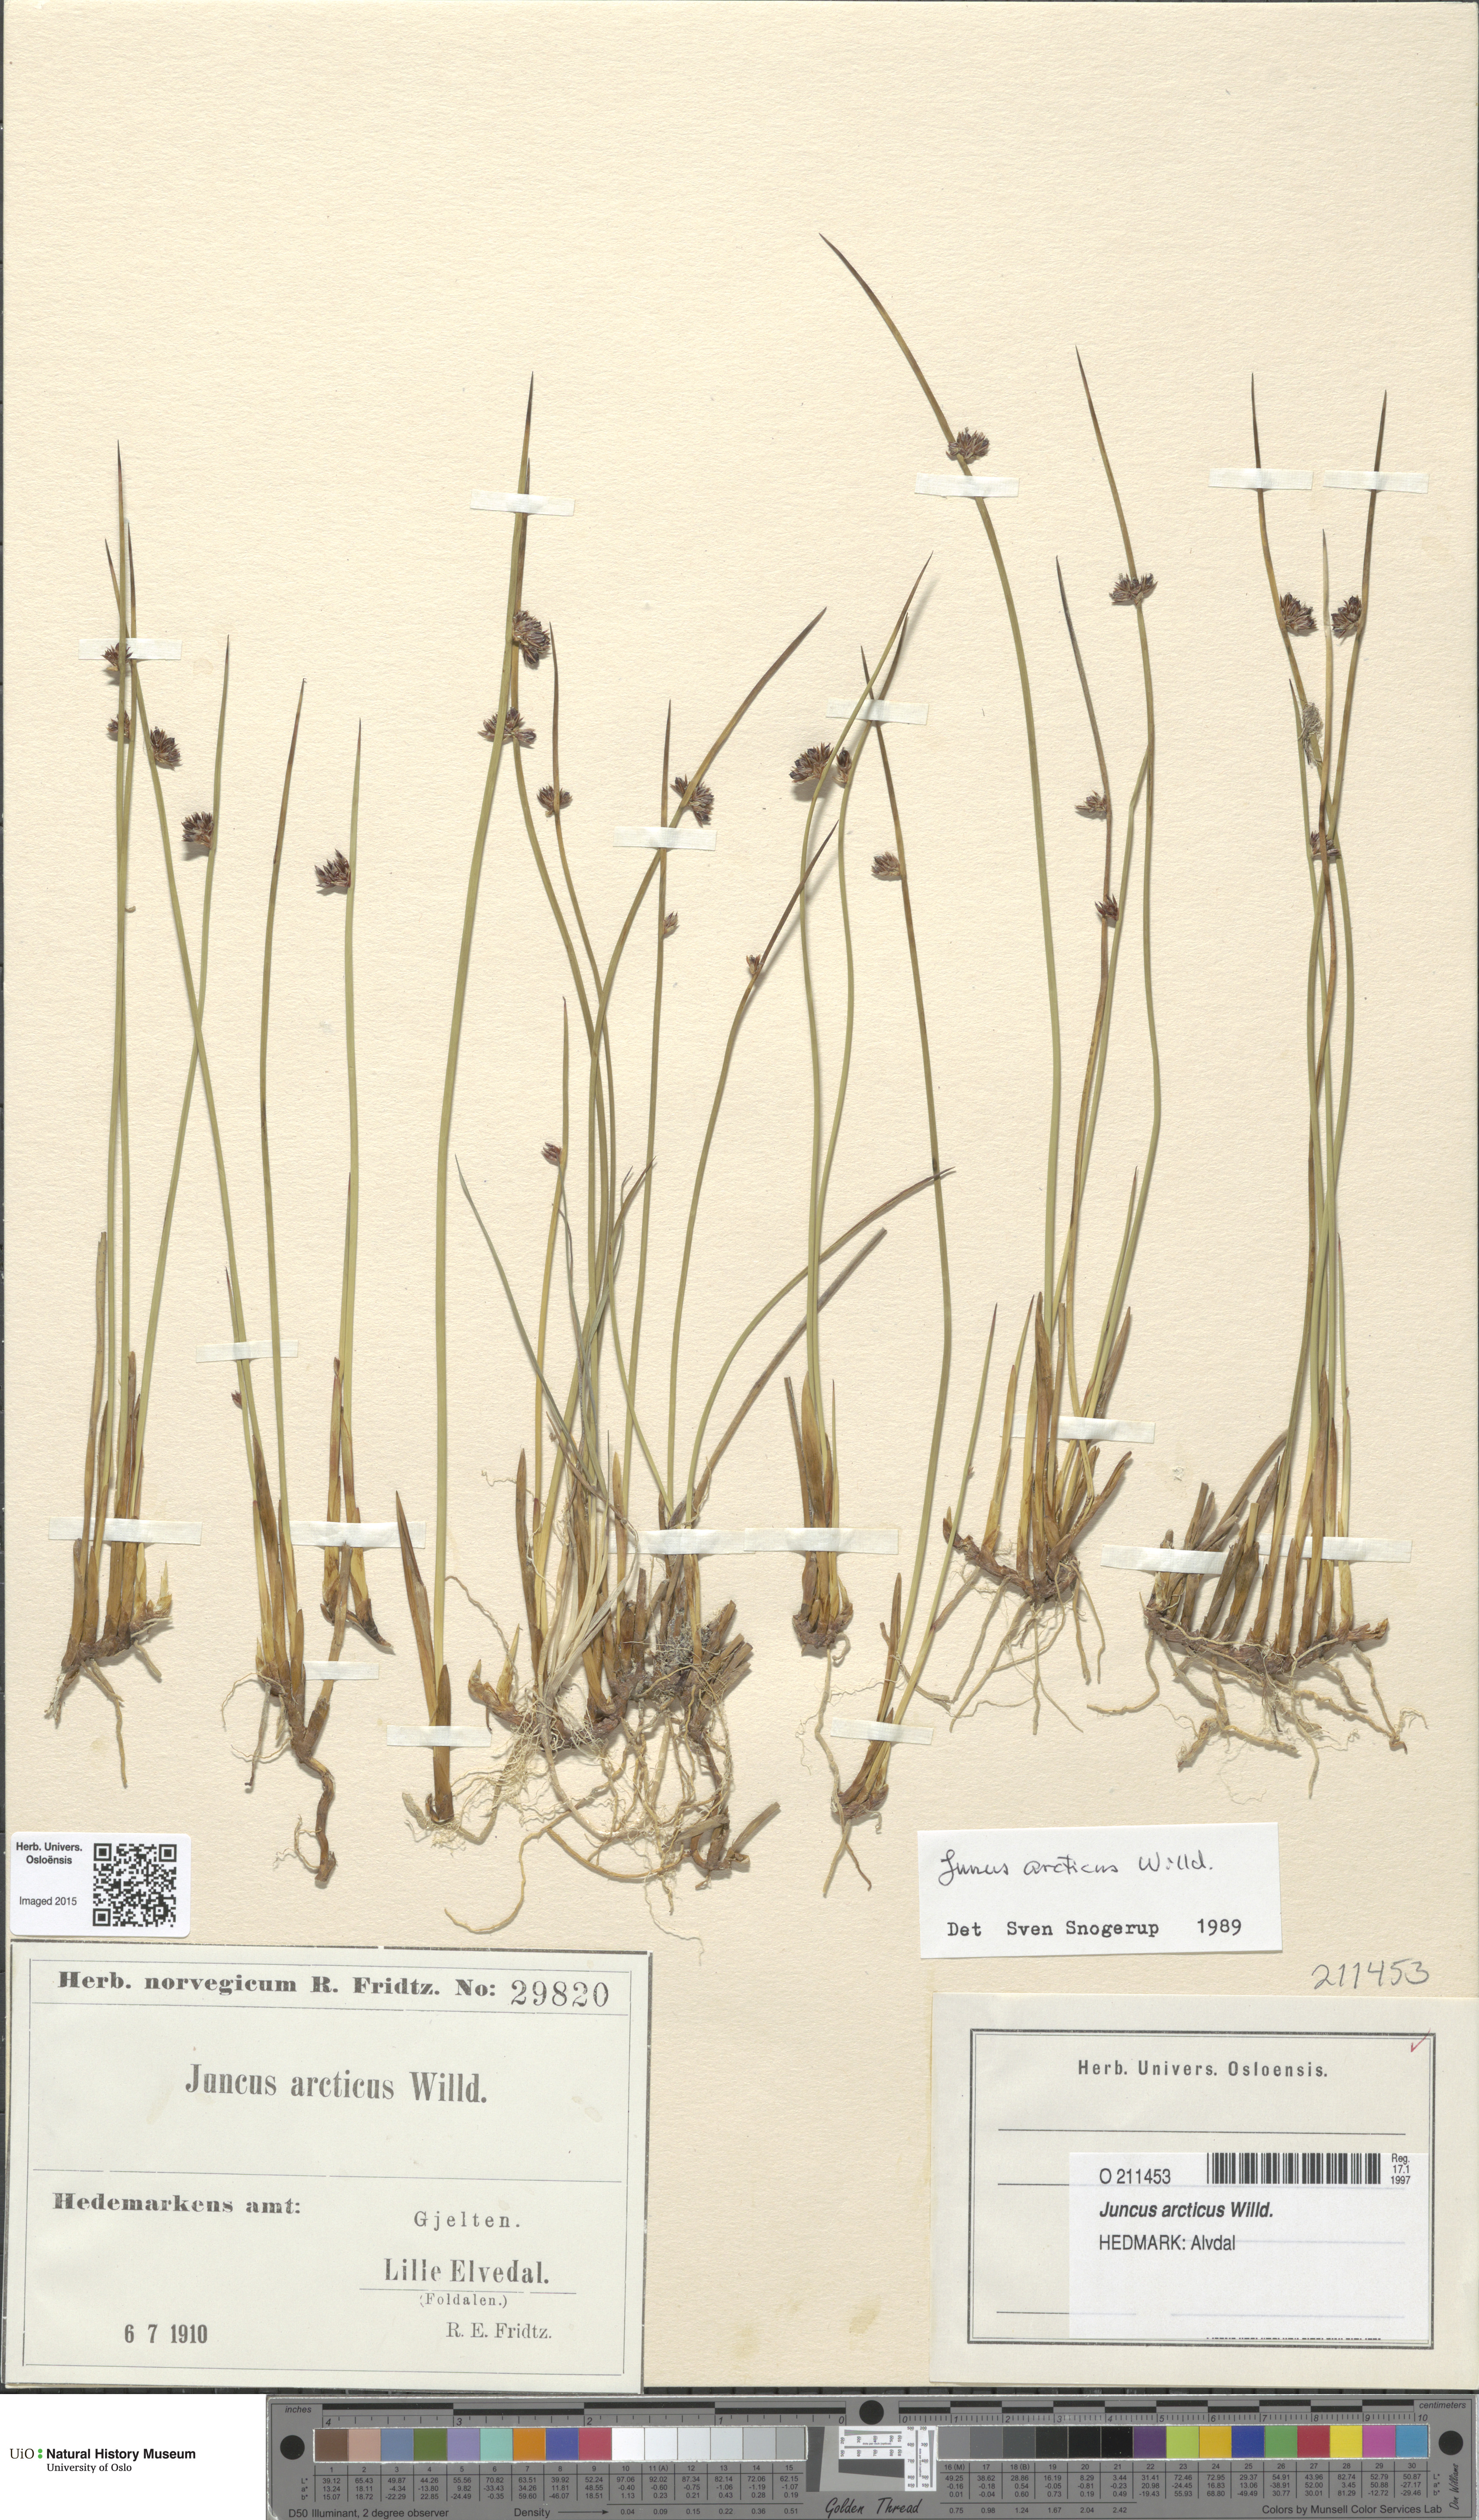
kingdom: Plantae
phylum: Tracheophyta
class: Liliopsida
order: Poales
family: Juncaceae
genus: Juncus
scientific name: Juncus arcticus
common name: Arctic rush
